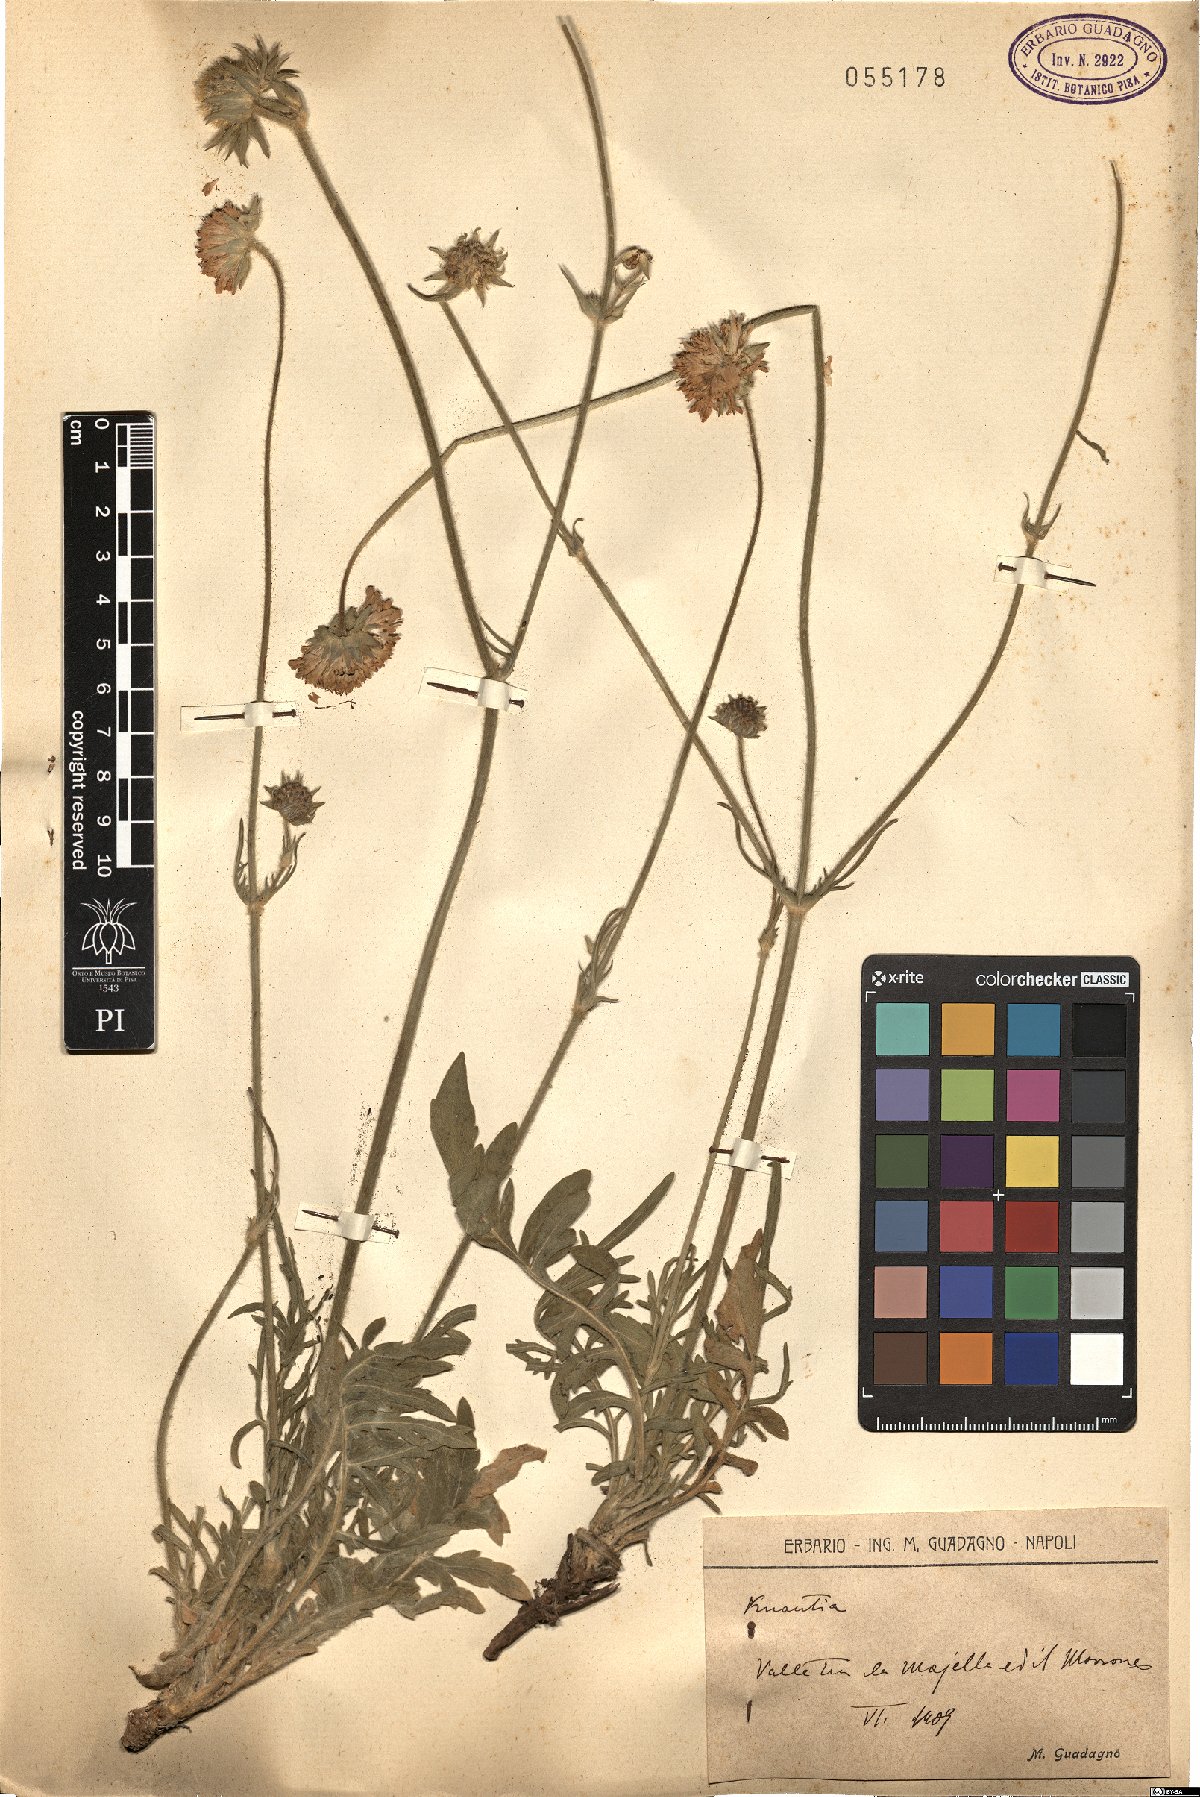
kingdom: Plantae
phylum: Tracheophyta
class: Magnoliopsida
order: Dipsacales
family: Caprifoliaceae
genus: Knautia
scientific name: Knautia
